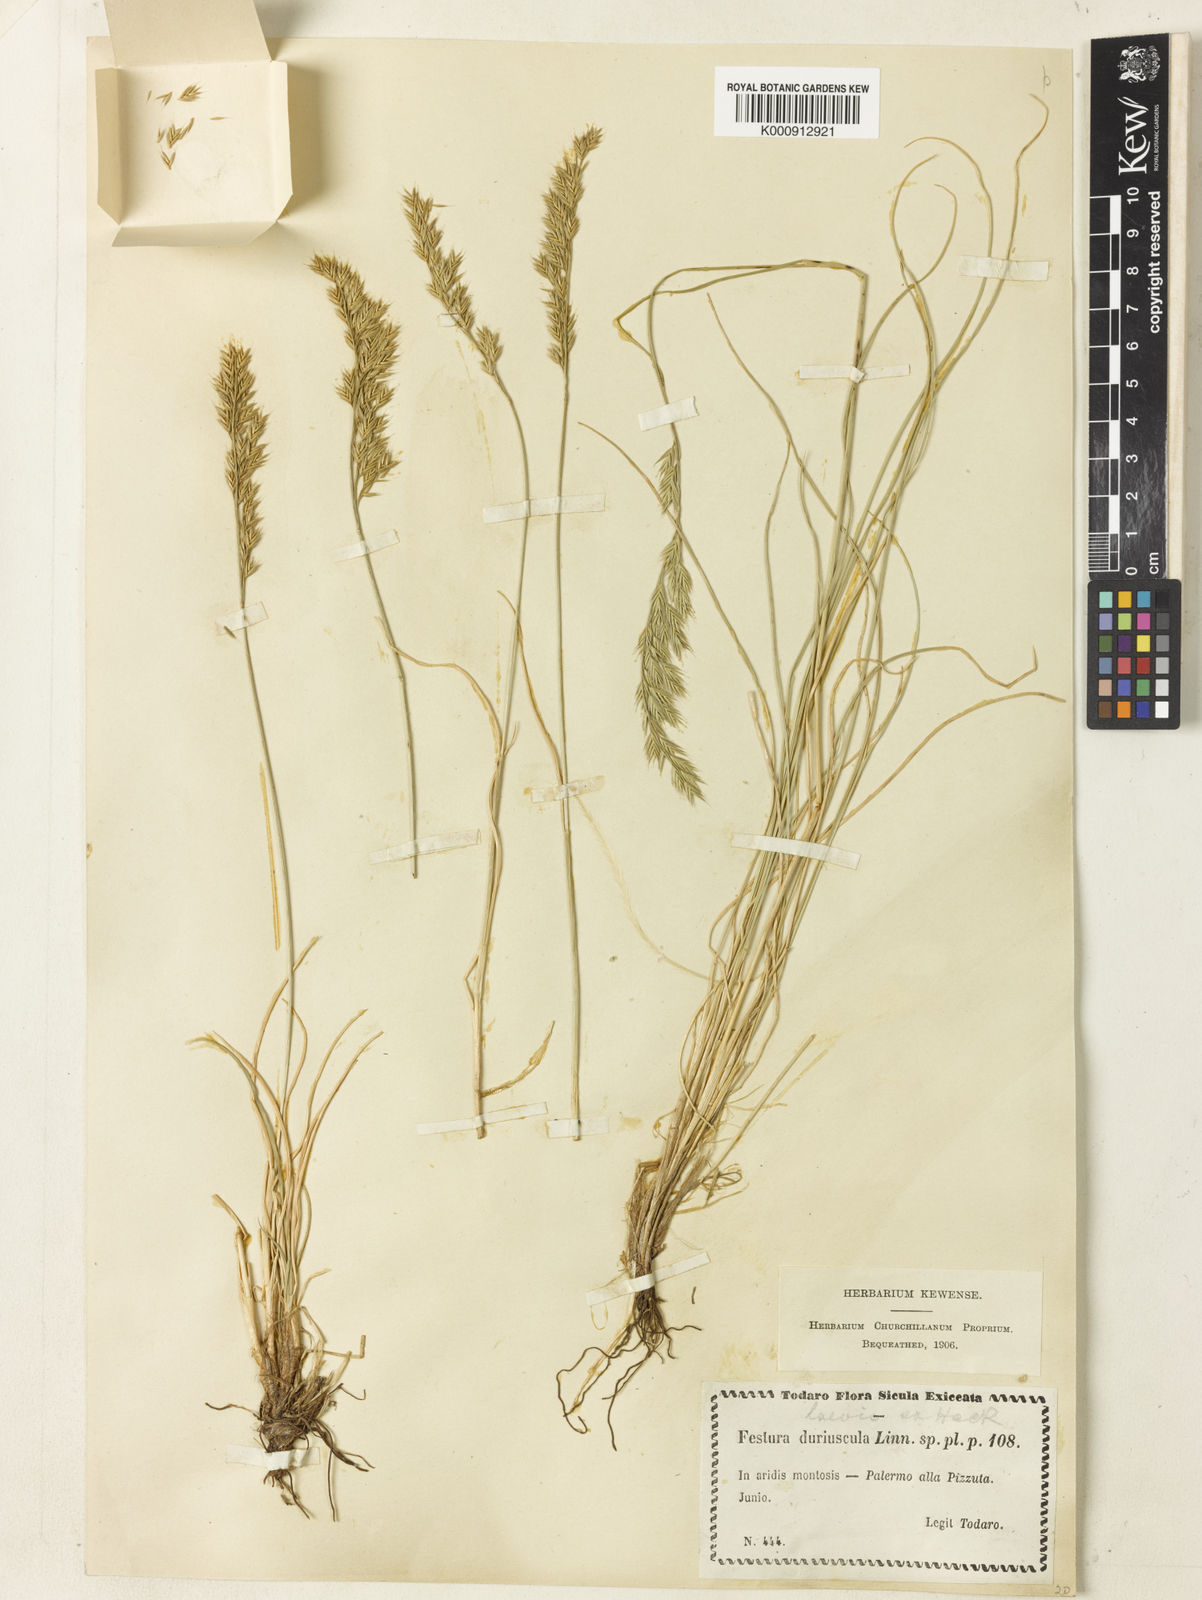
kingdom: Plantae
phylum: Tracheophyta
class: Liliopsida
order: Poales
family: Poaceae
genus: Festuca
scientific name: Festuca circummediterranea
